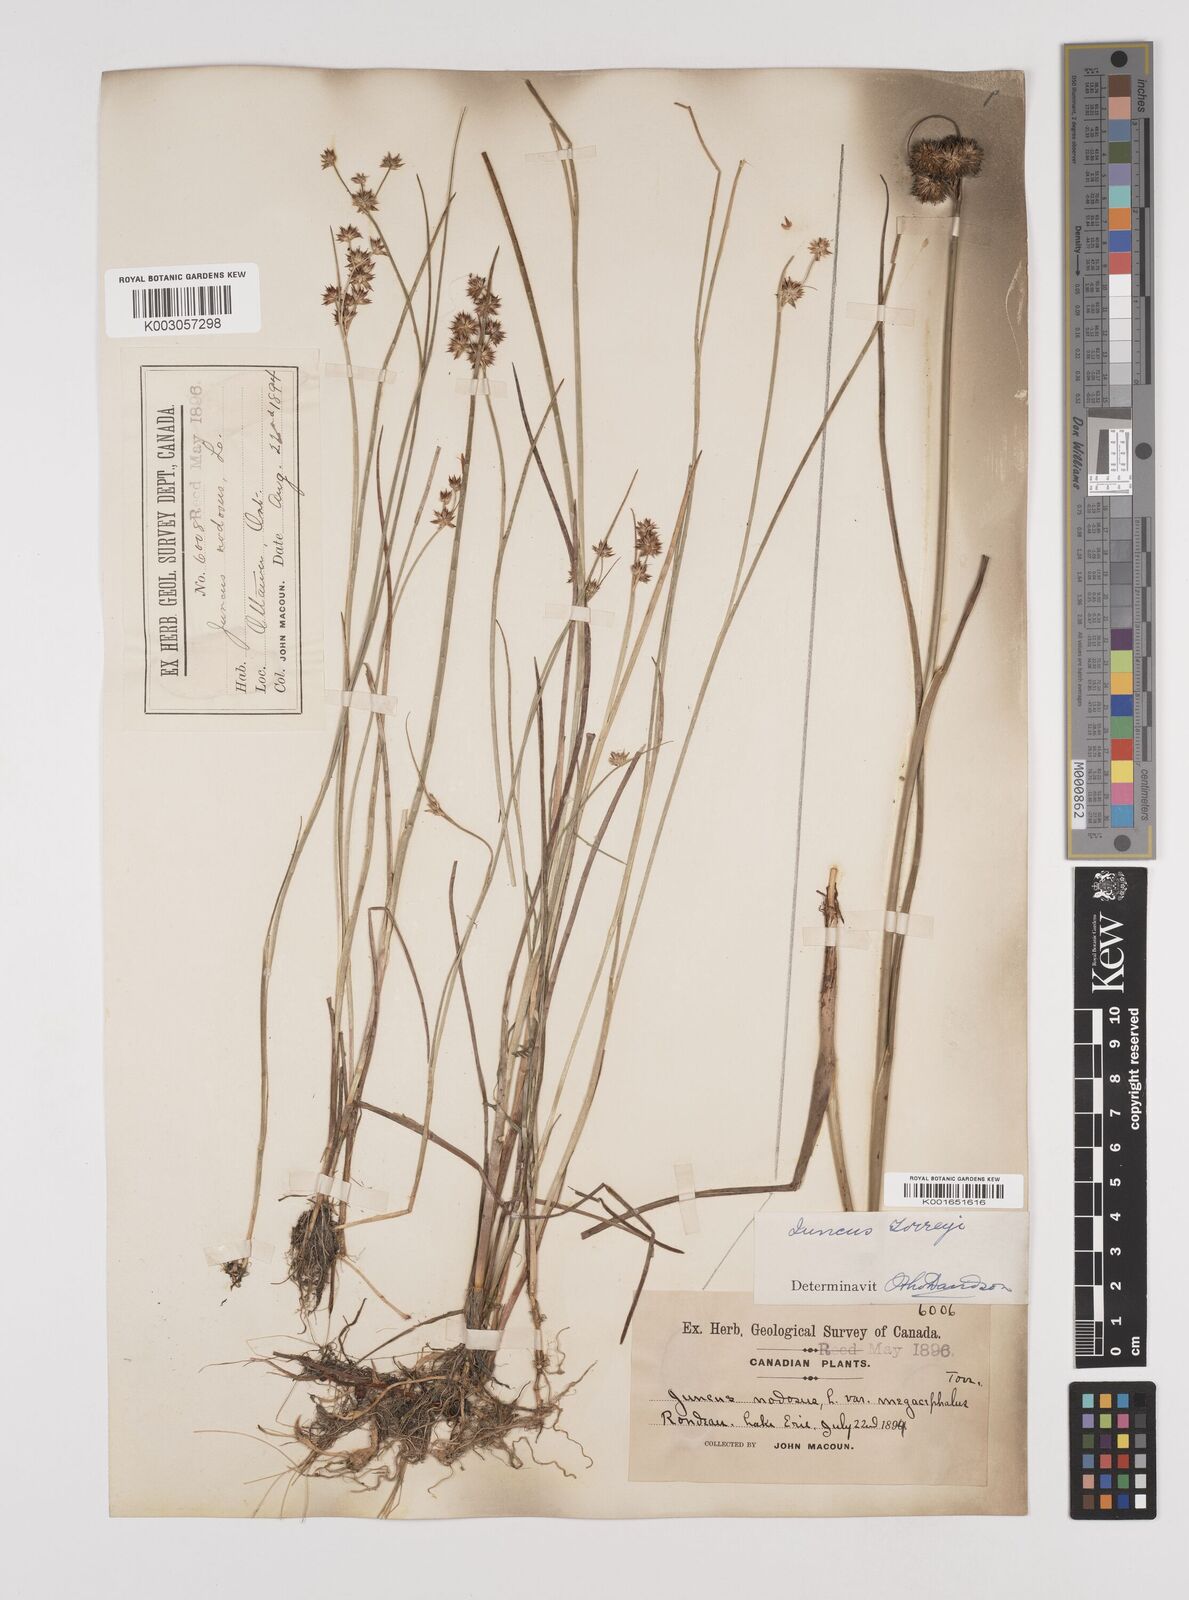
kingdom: Plantae
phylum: Tracheophyta
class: Liliopsida
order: Poales
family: Juncaceae
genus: Juncus
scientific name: Juncus nodosus
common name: Knotted rush
